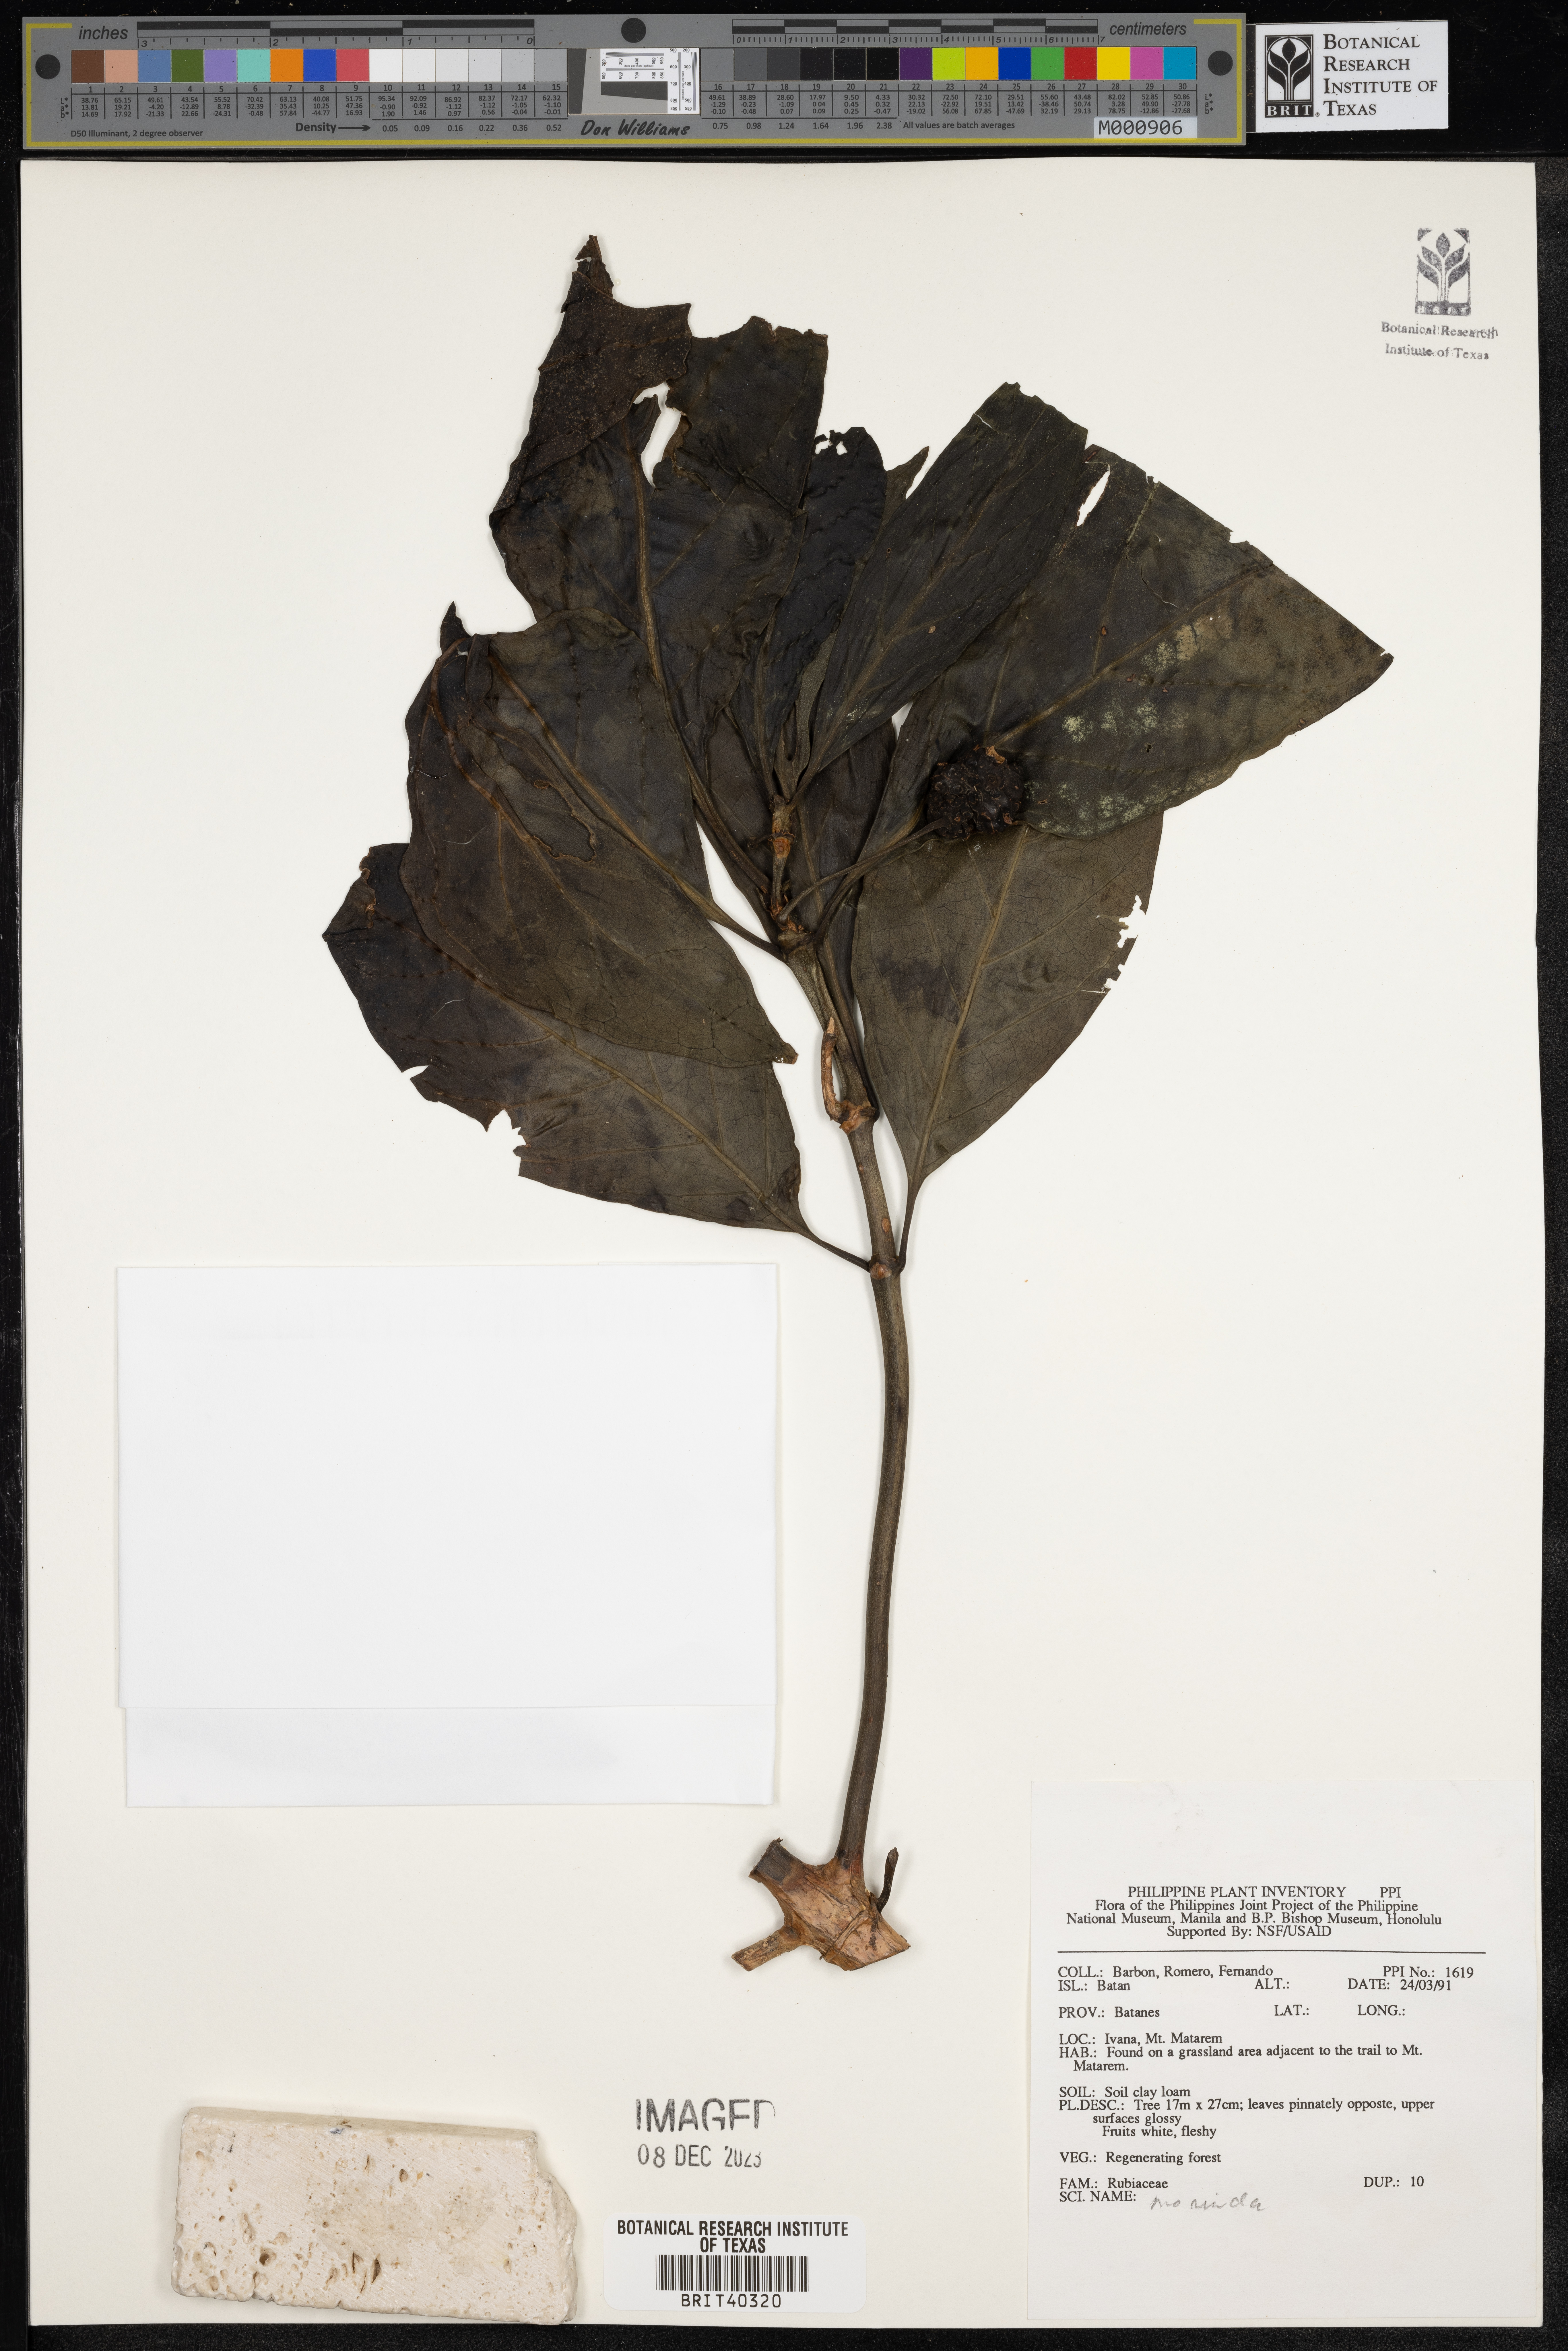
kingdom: Plantae
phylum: Tracheophyta
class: Magnoliopsida
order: Gentianales
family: Rubiaceae
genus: Morinda
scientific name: Morinda
